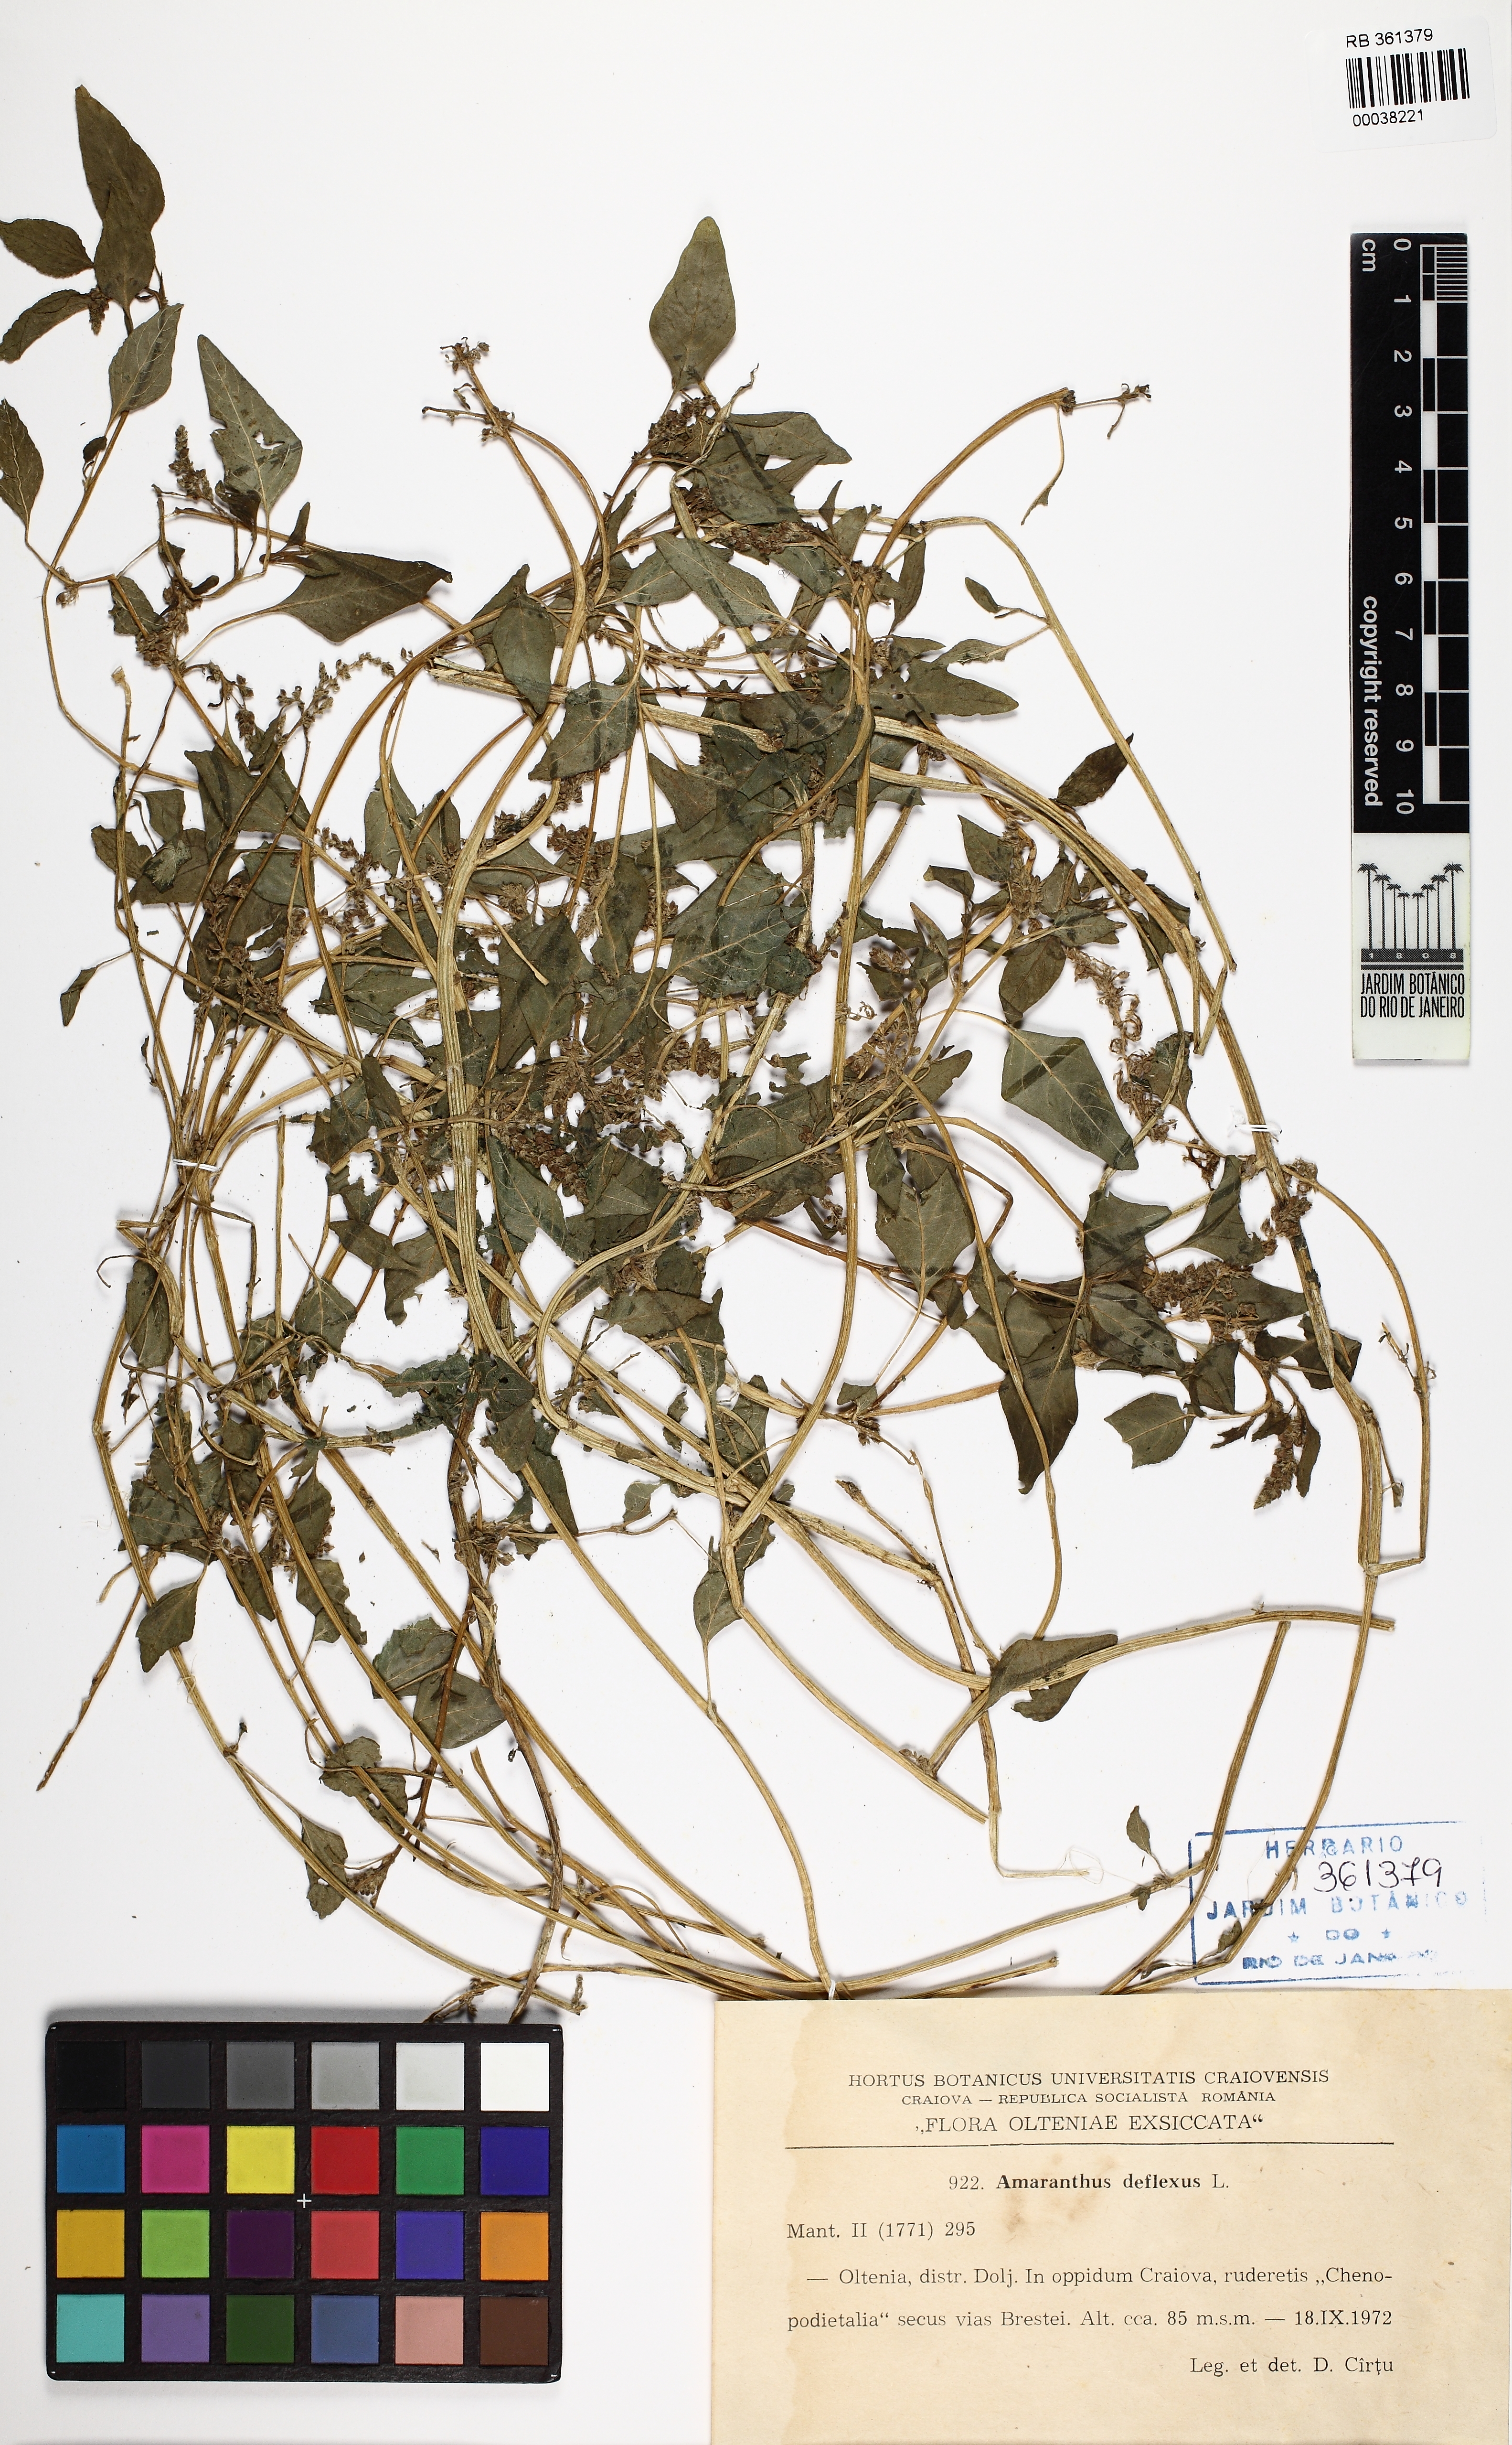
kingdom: Plantae
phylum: Tracheophyta
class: Magnoliopsida
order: Caryophyllales
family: Amaranthaceae
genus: Amaranthus
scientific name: Amaranthus deflexus
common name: Perennial pigweed
